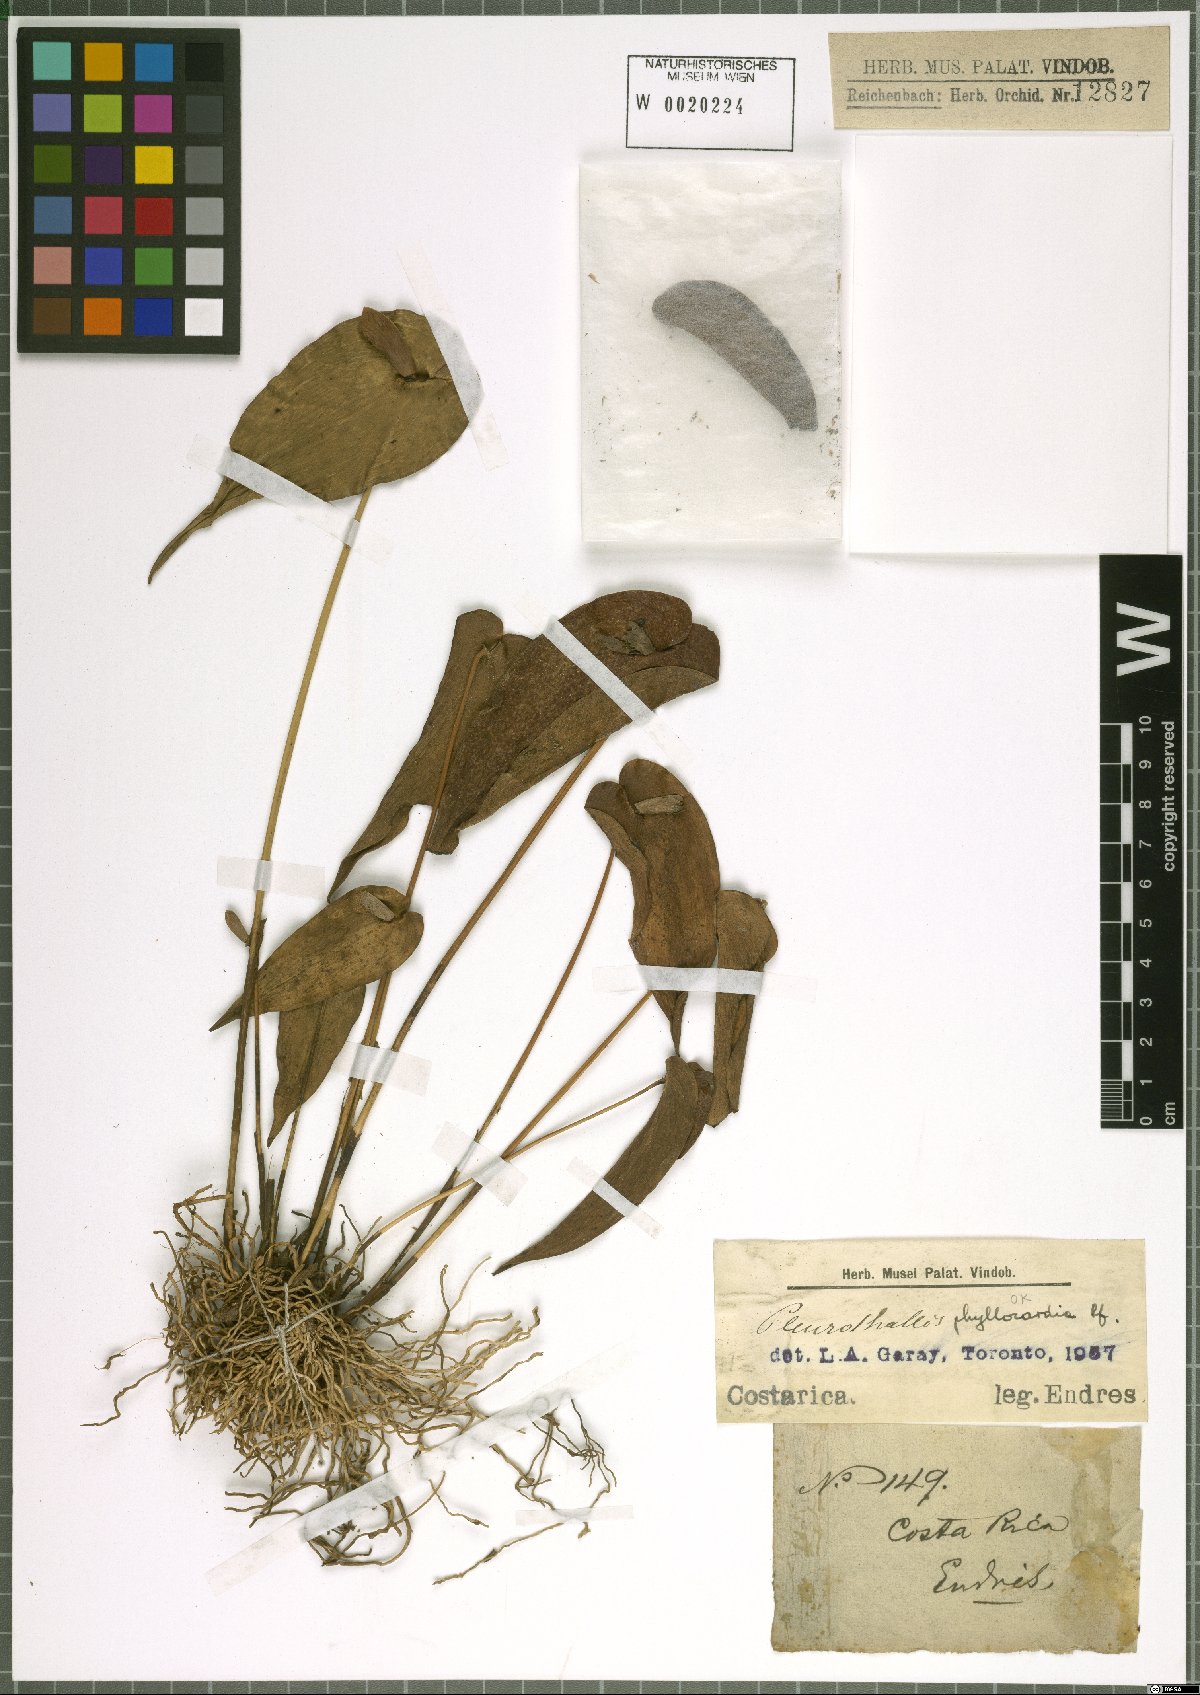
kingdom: Plantae
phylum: Tracheophyta
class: Liliopsida
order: Asparagales
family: Orchidaceae
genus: Pleurothallis
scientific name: Pleurothallis phyllocardia
